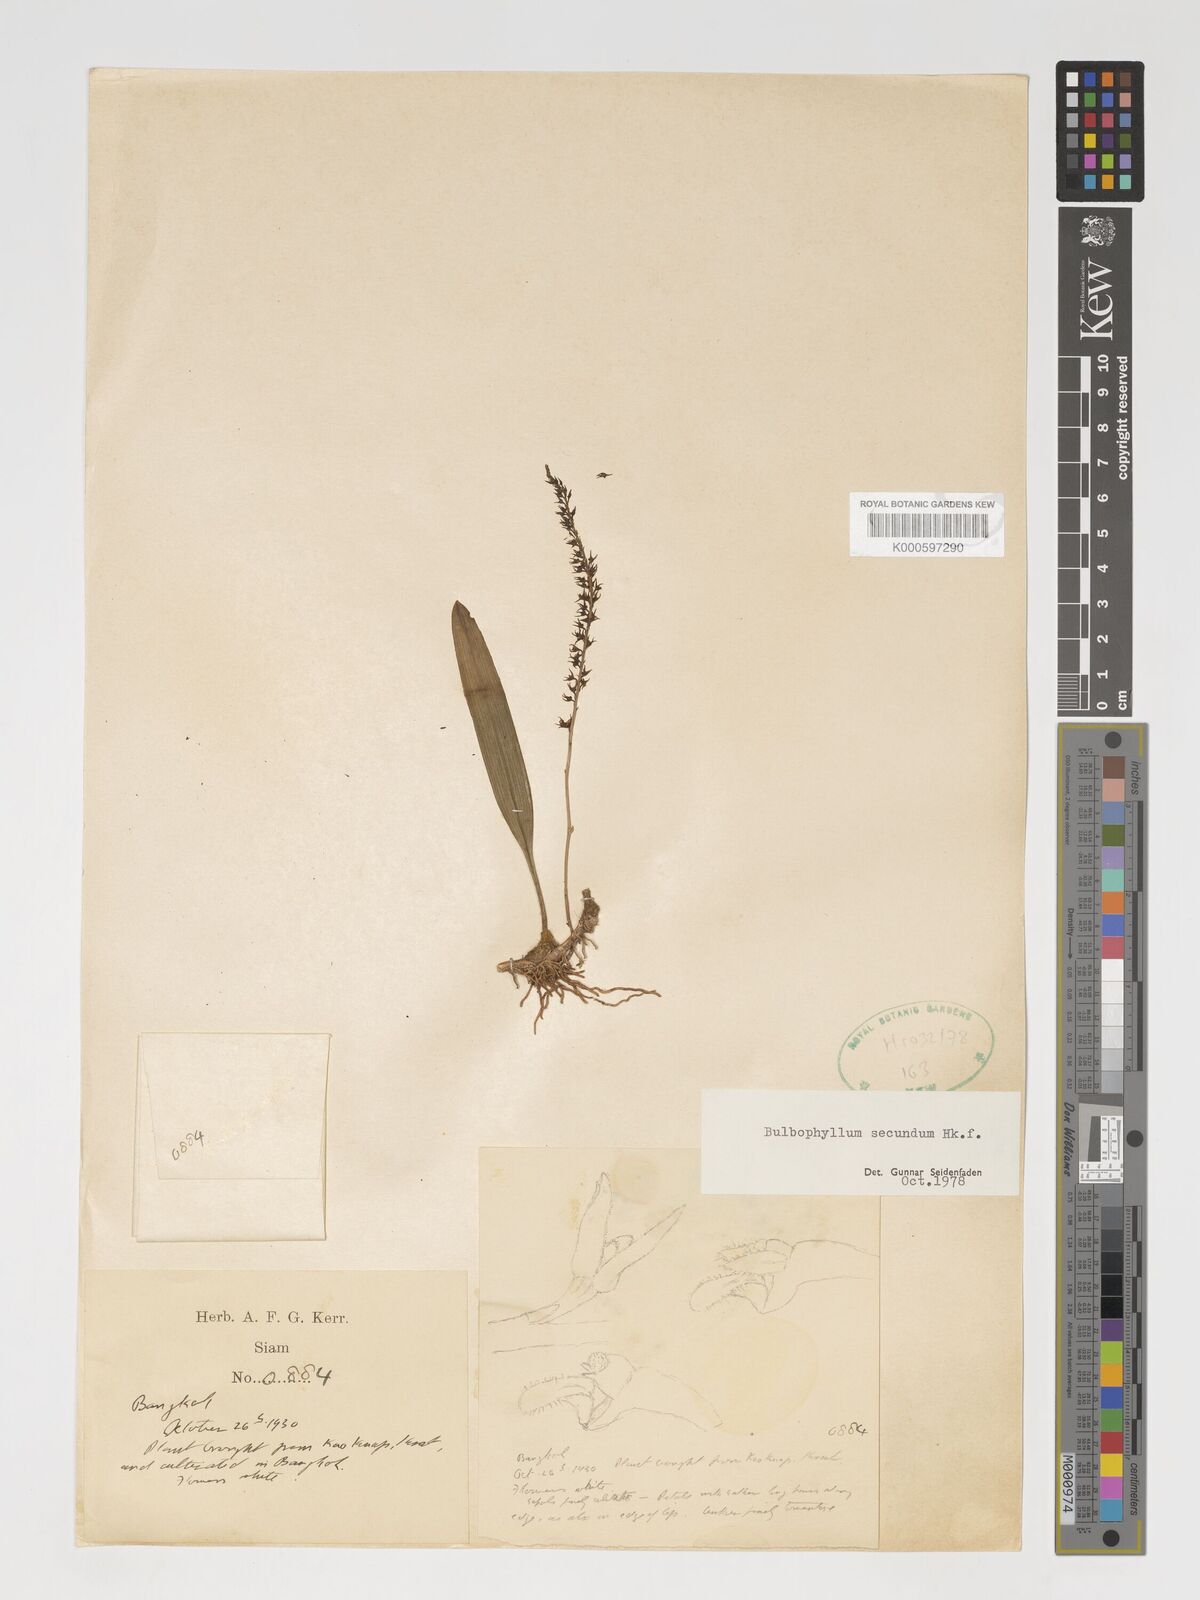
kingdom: Plantae
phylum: Tracheophyta
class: Liliopsida
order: Asparagales
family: Orchidaceae
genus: Bulbophyllum
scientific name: Bulbophyllum secundum
